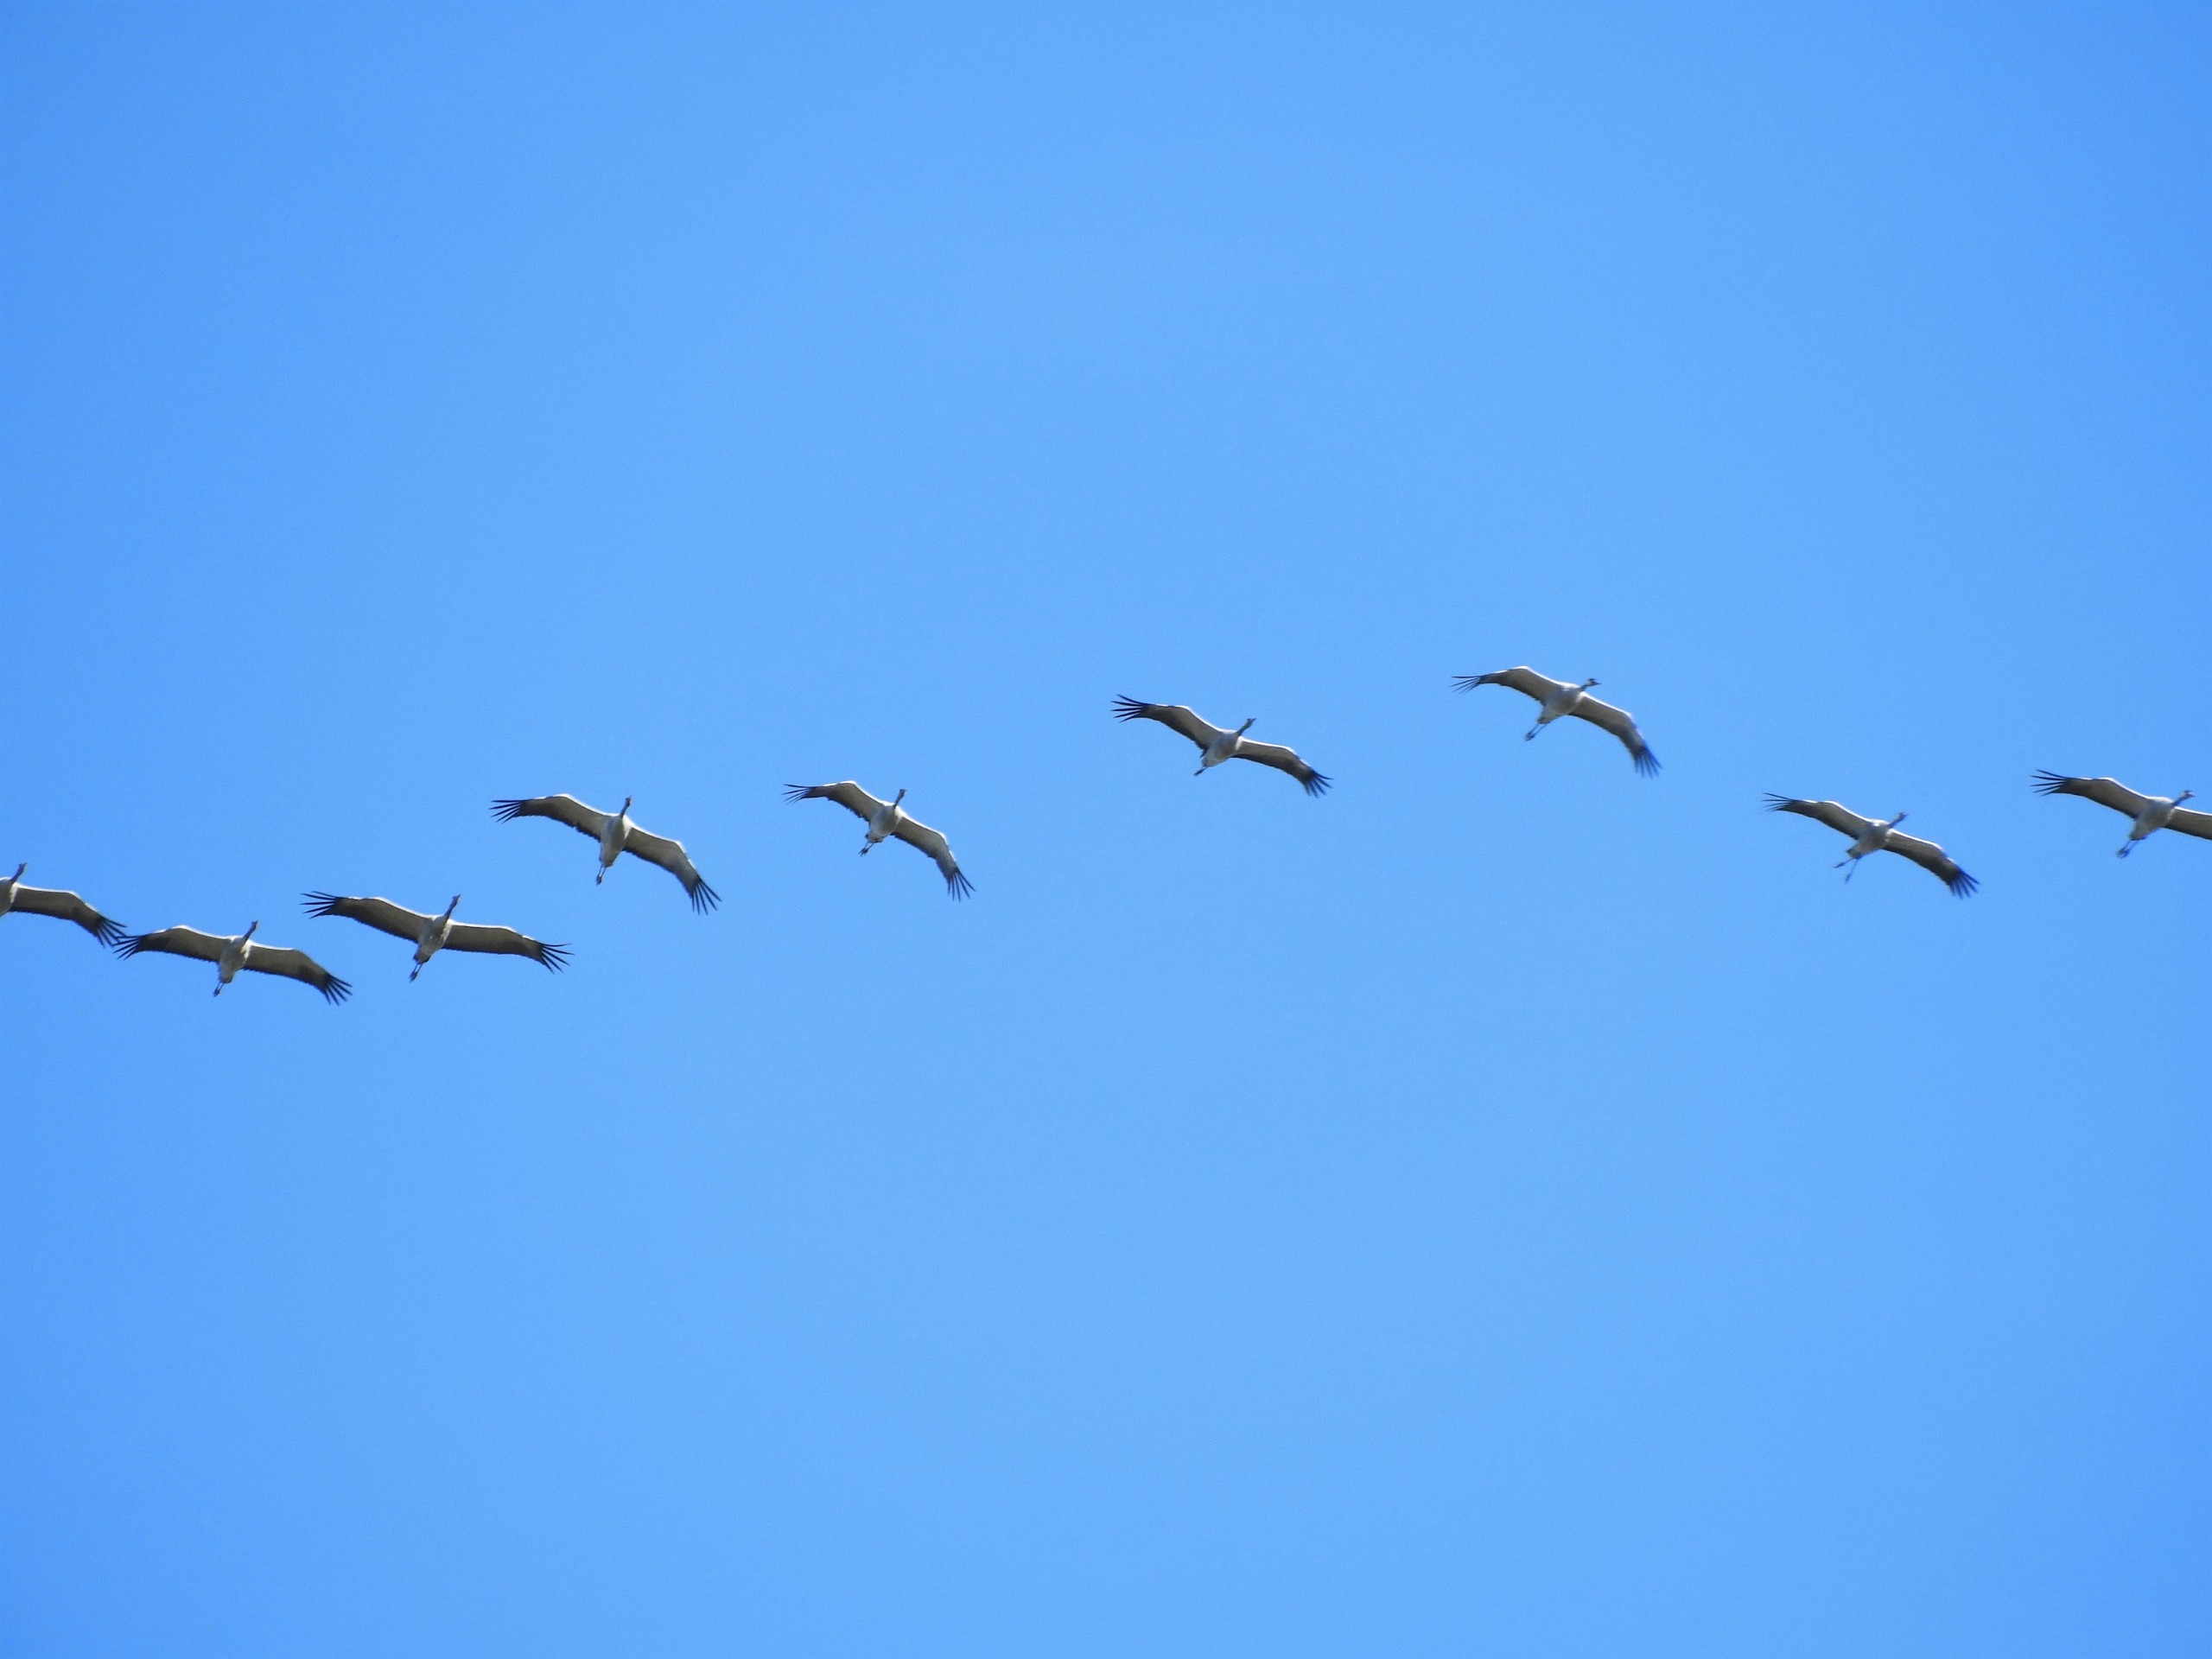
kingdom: Animalia
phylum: Chordata
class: Aves
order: Gruiformes
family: Gruidae
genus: Grus
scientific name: Grus grus
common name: Trane
